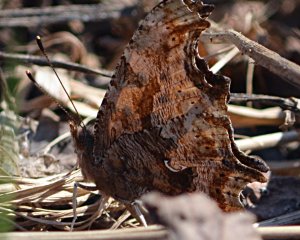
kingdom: Animalia
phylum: Arthropoda
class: Insecta
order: Lepidoptera
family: Nymphalidae
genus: Polygonia
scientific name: Polygonia comma
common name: Eastern Comma
